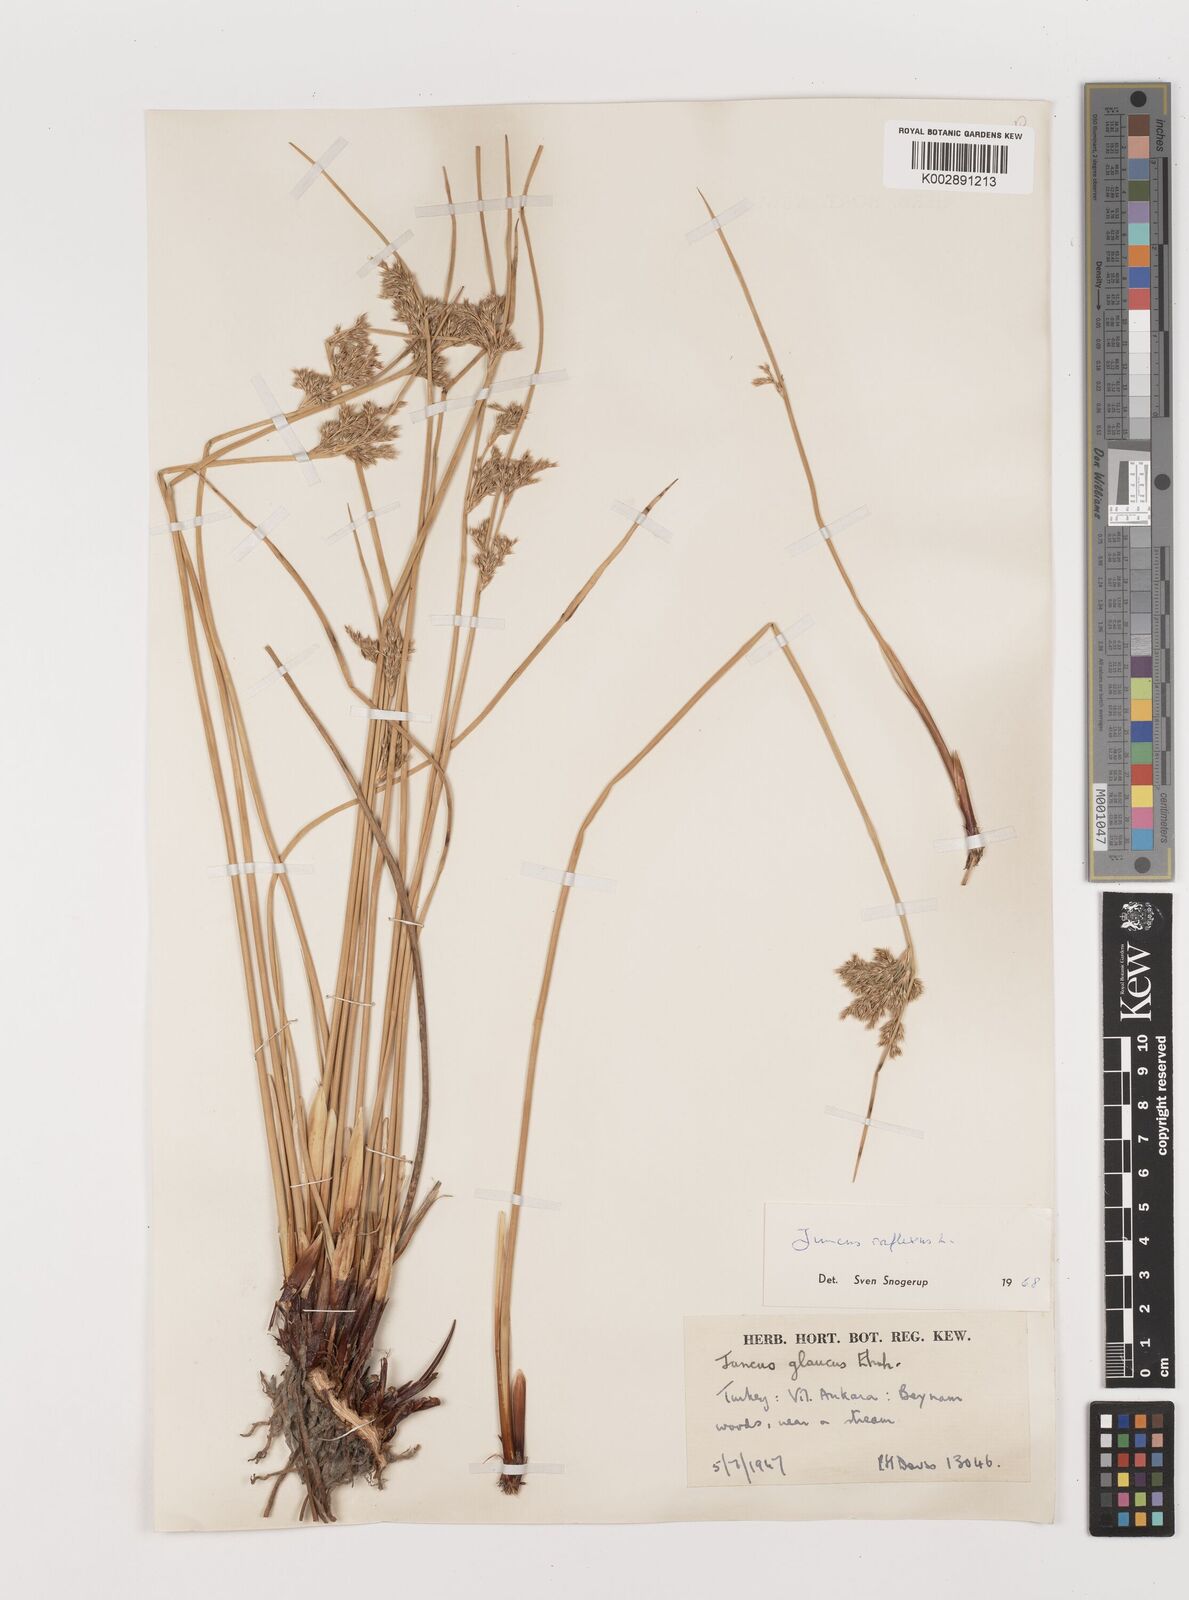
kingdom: Plantae
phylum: Tracheophyta
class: Liliopsida
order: Poales
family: Juncaceae
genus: Juncus
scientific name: Juncus inflexus
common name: Hard rush
